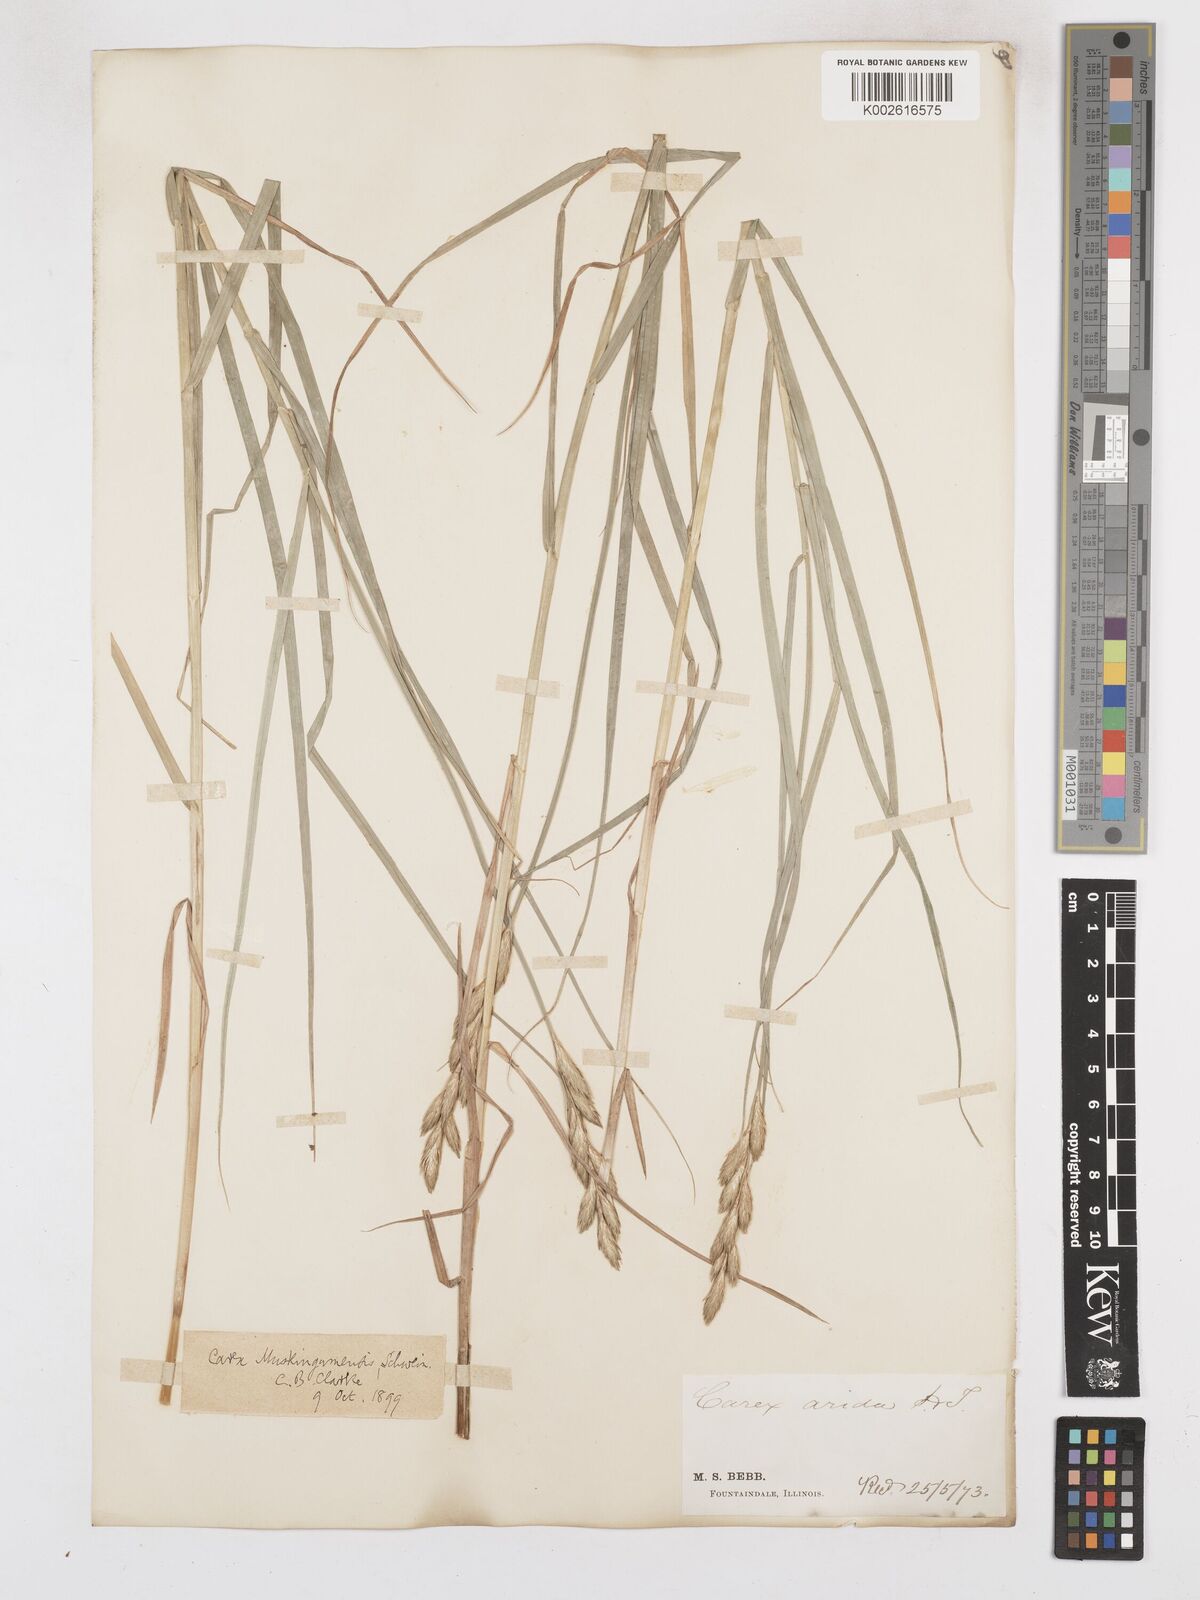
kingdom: Plantae
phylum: Tracheophyta
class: Liliopsida
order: Poales
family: Cyperaceae
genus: Carex
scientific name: Carex muskingumensis
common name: Muskingum sedge
